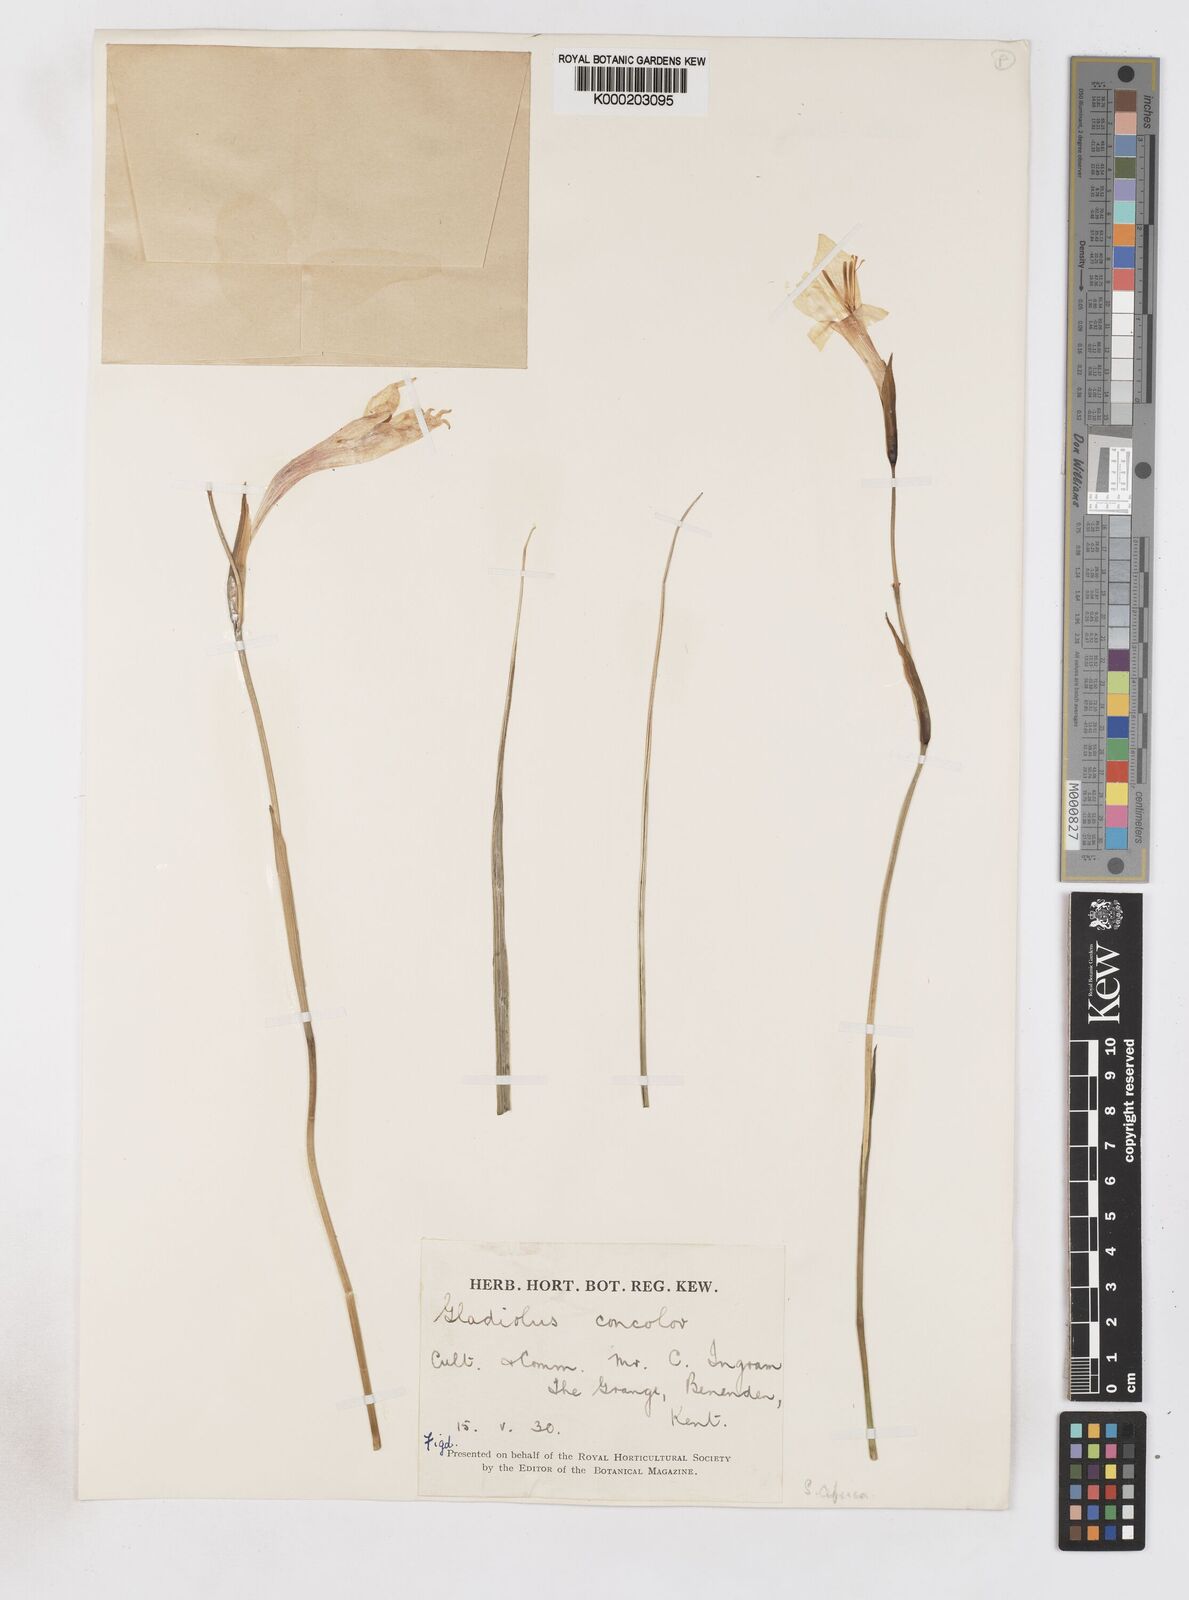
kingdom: Plantae
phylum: Tracheophyta
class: Liliopsida
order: Asparagales
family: Iridaceae
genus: Gladiolus
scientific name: Gladiolus tristis
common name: Ever-flowering gladiolus
